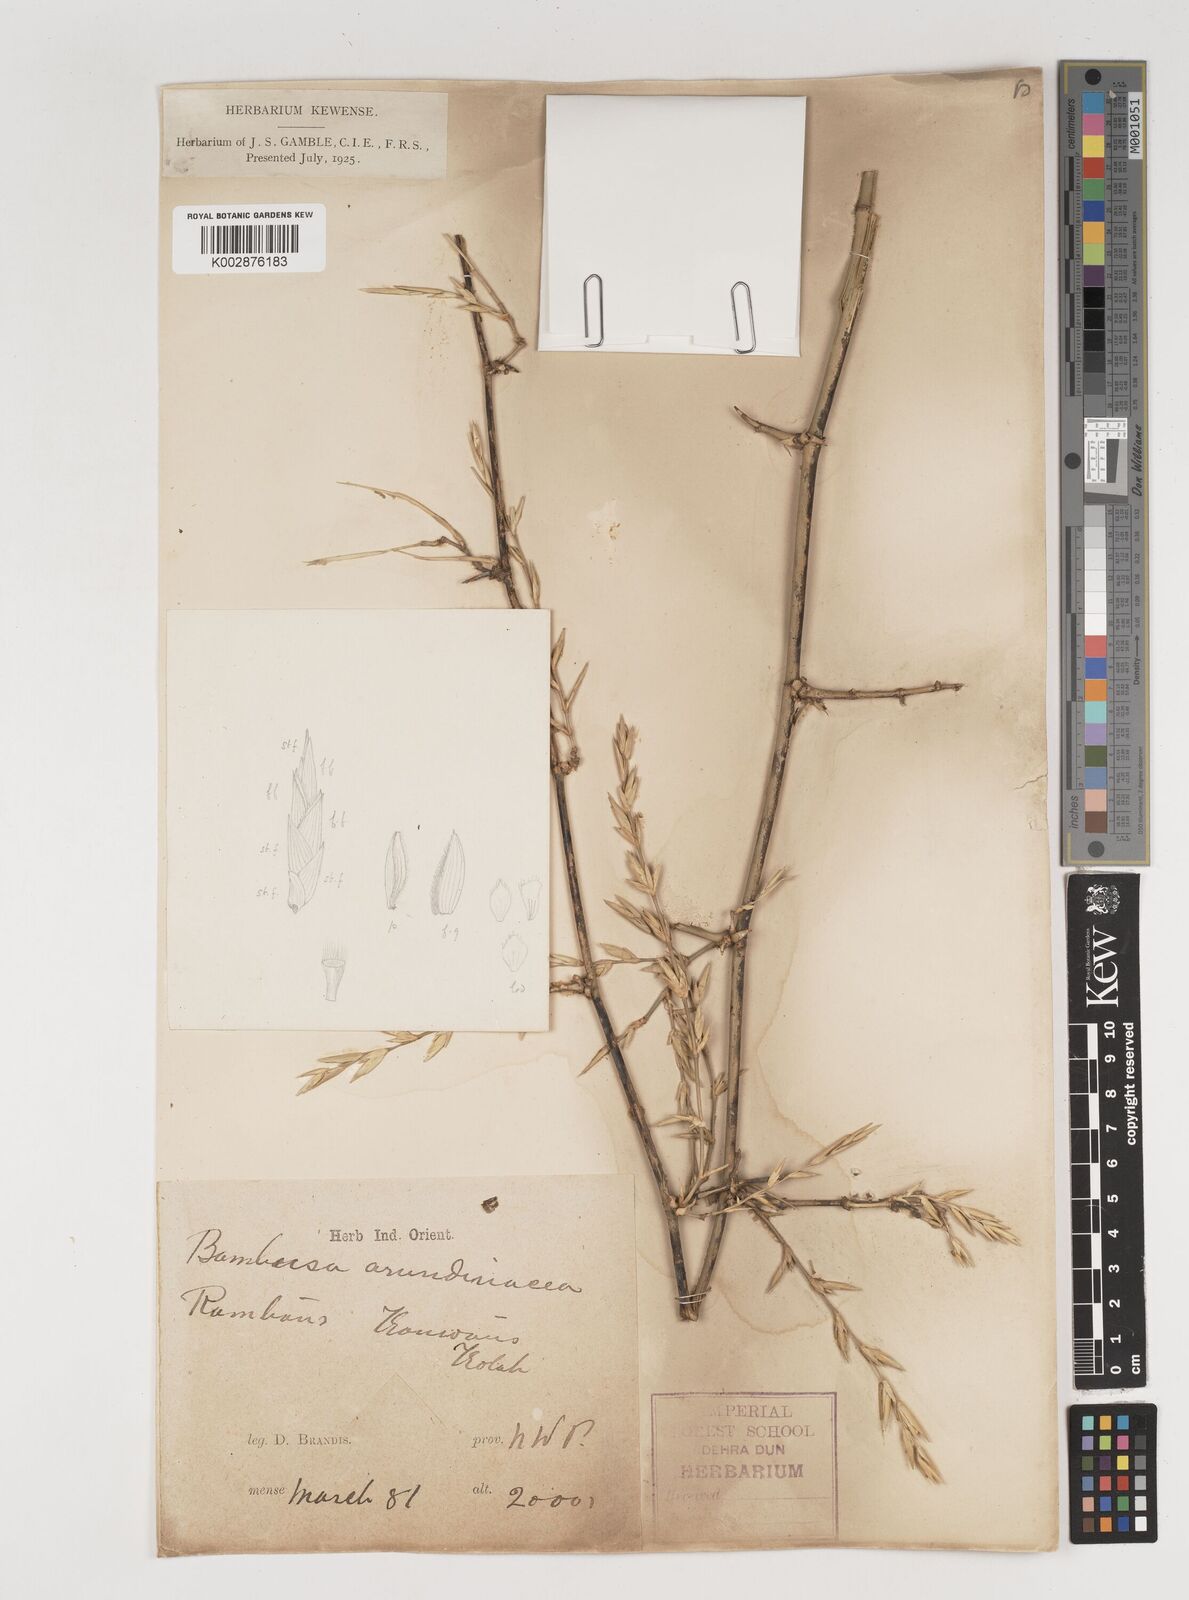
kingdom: Plantae
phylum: Tracheophyta
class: Liliopsida
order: Poales
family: Poaceae
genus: Bambusa
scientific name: Bambusa bambos
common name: Indian thorny bamboo
